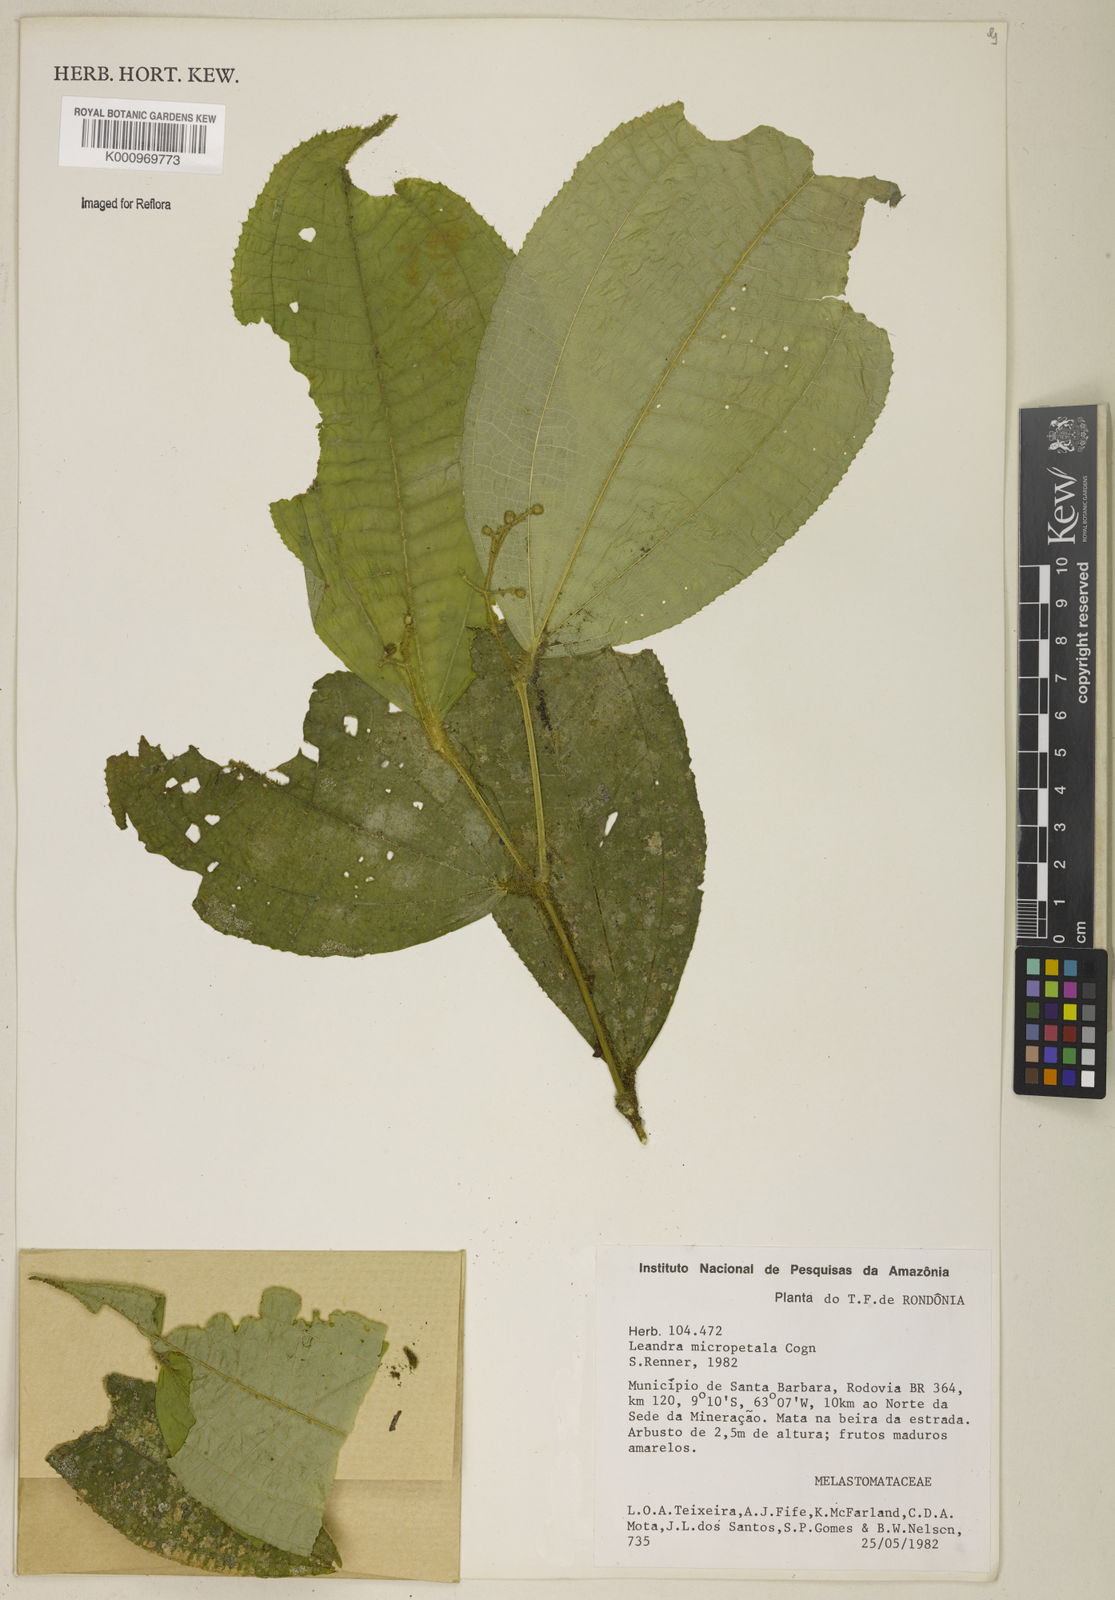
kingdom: Plantae
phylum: Tracheophyta
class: Magnoliopsida
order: Myrtales
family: Melastomataceae
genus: Miconia
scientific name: Miconia nanopetala
